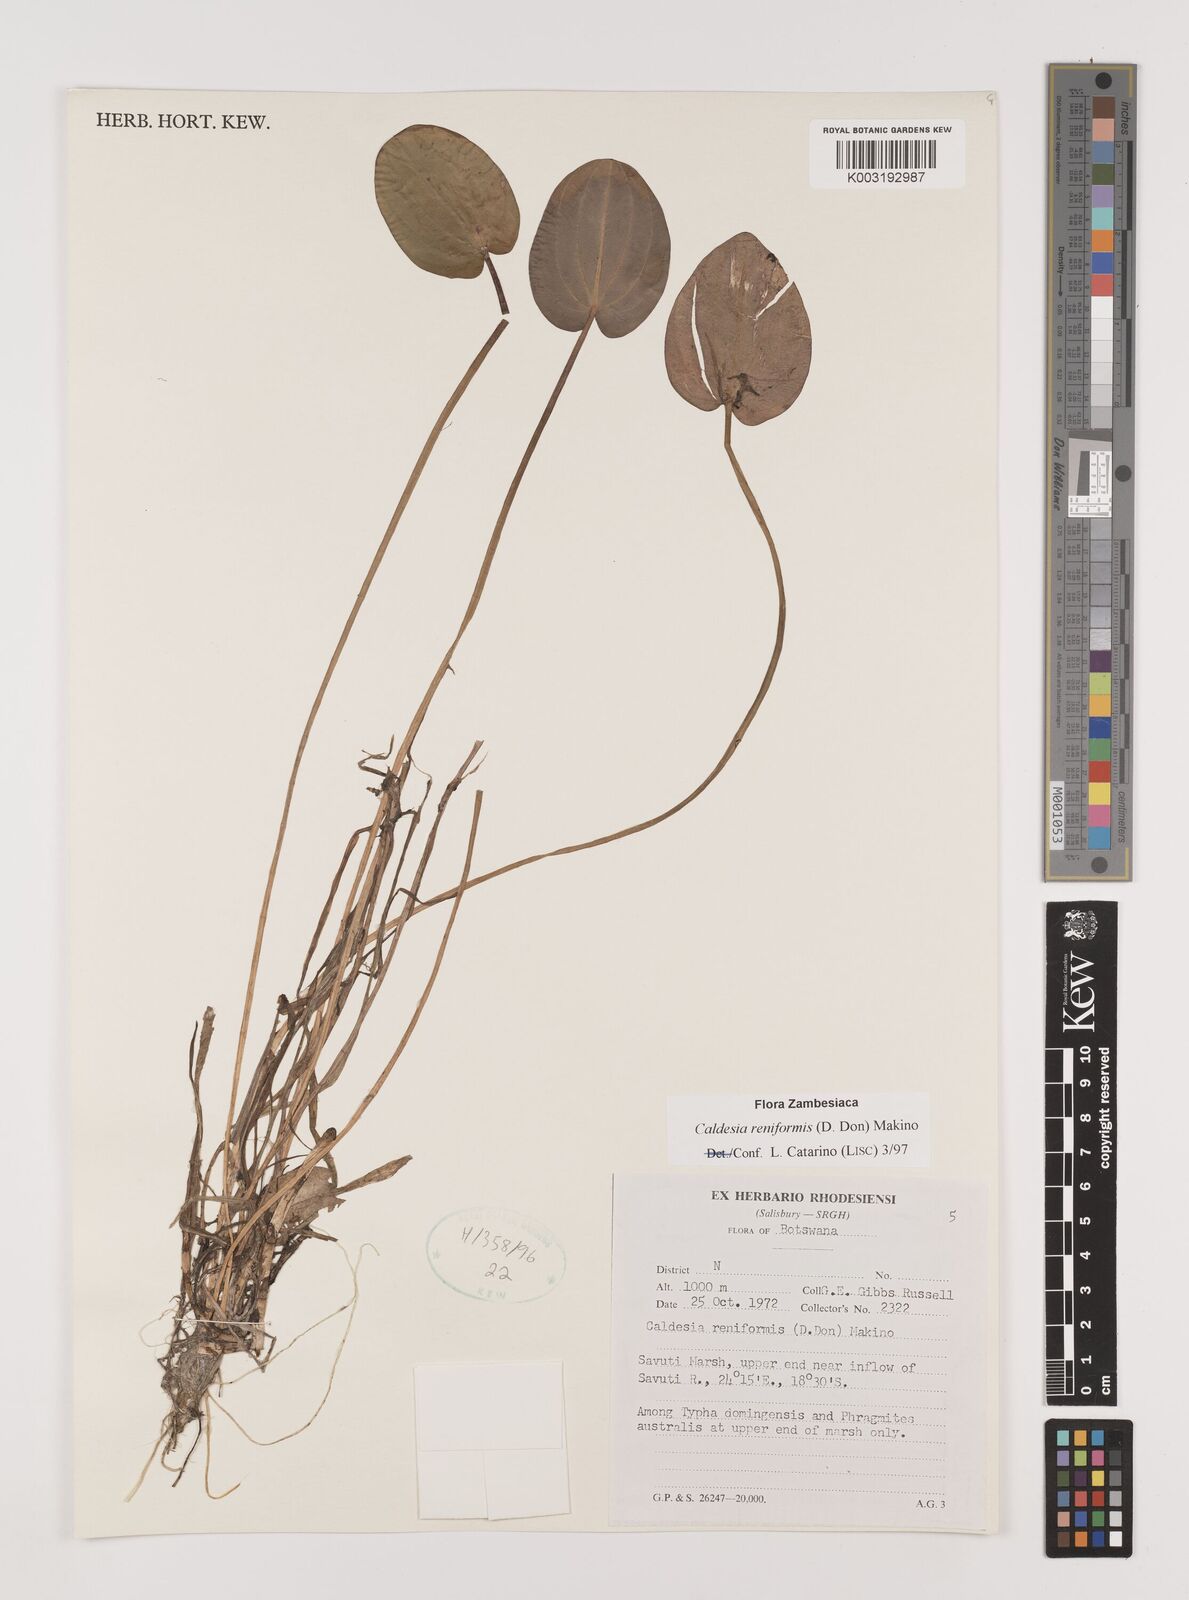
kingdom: Plantae
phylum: Tracheophyta
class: Liliopsida
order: Alismatales
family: Alismataceae
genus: Caldesia
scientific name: Caldesia parnassifolia
